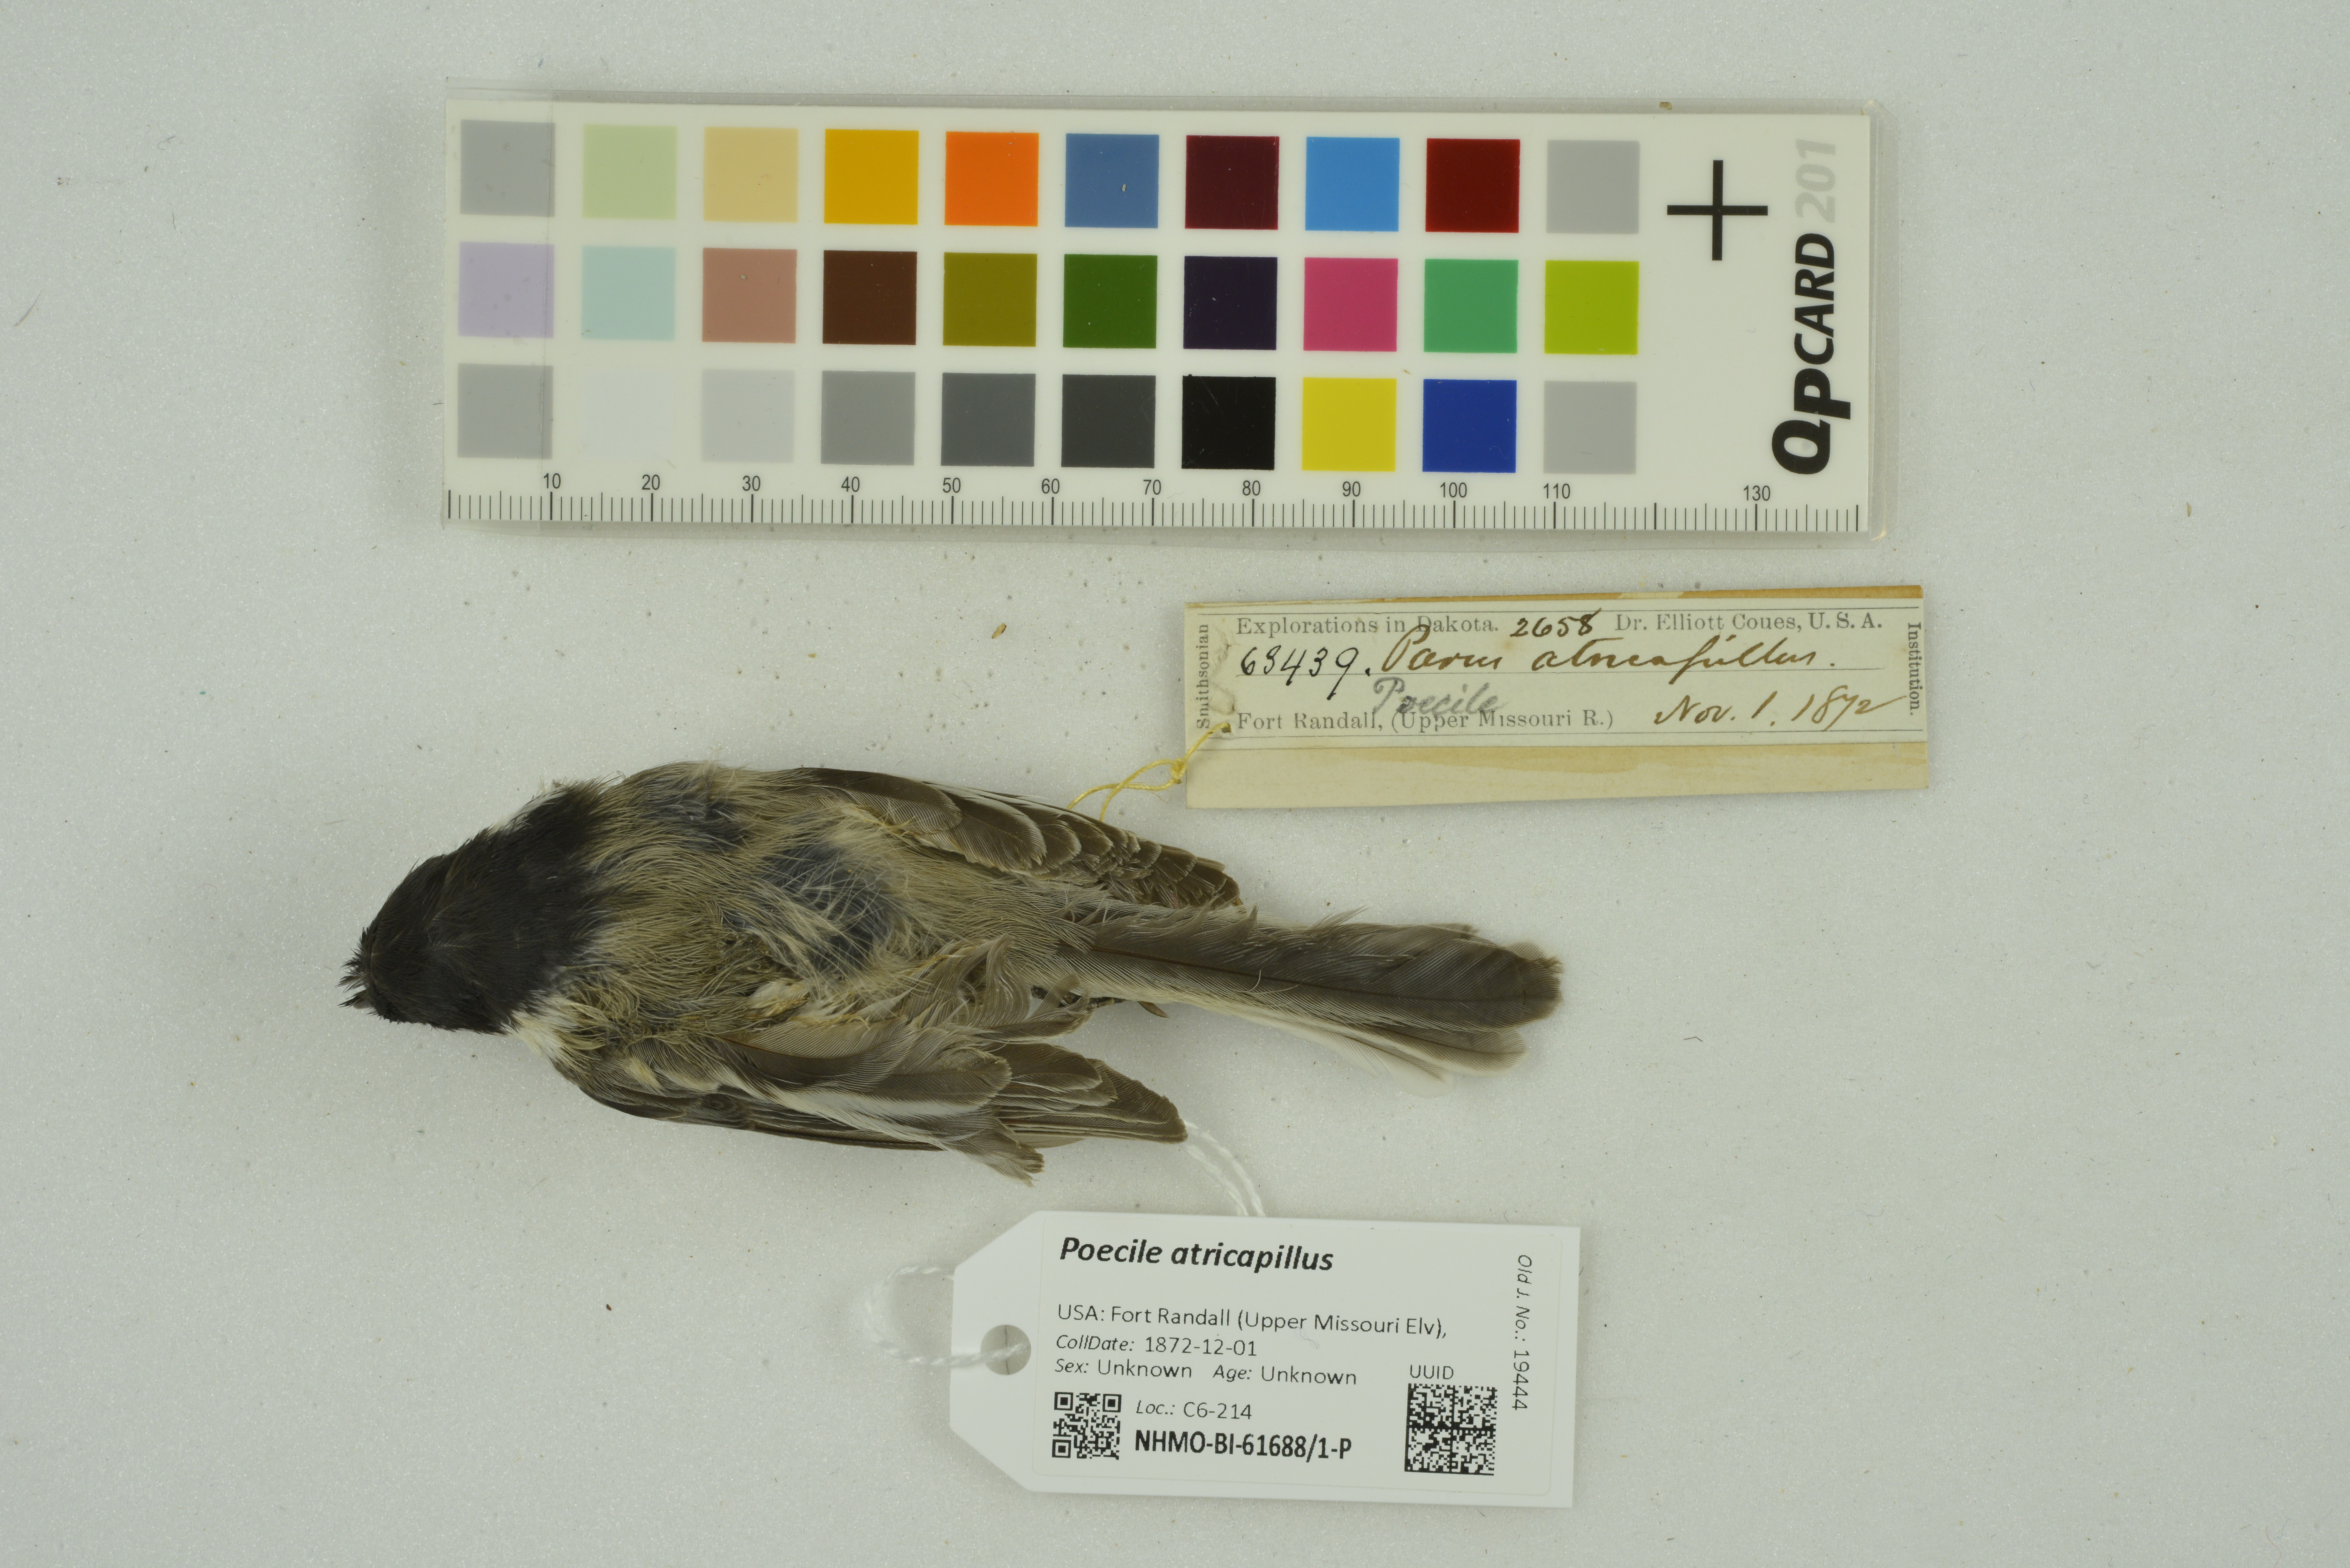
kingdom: Animalia
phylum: Chordata
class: Aves
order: Passeriformes
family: Paridae
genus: Poecile
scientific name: Poecile atricapillus
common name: Black-capped chickadee
